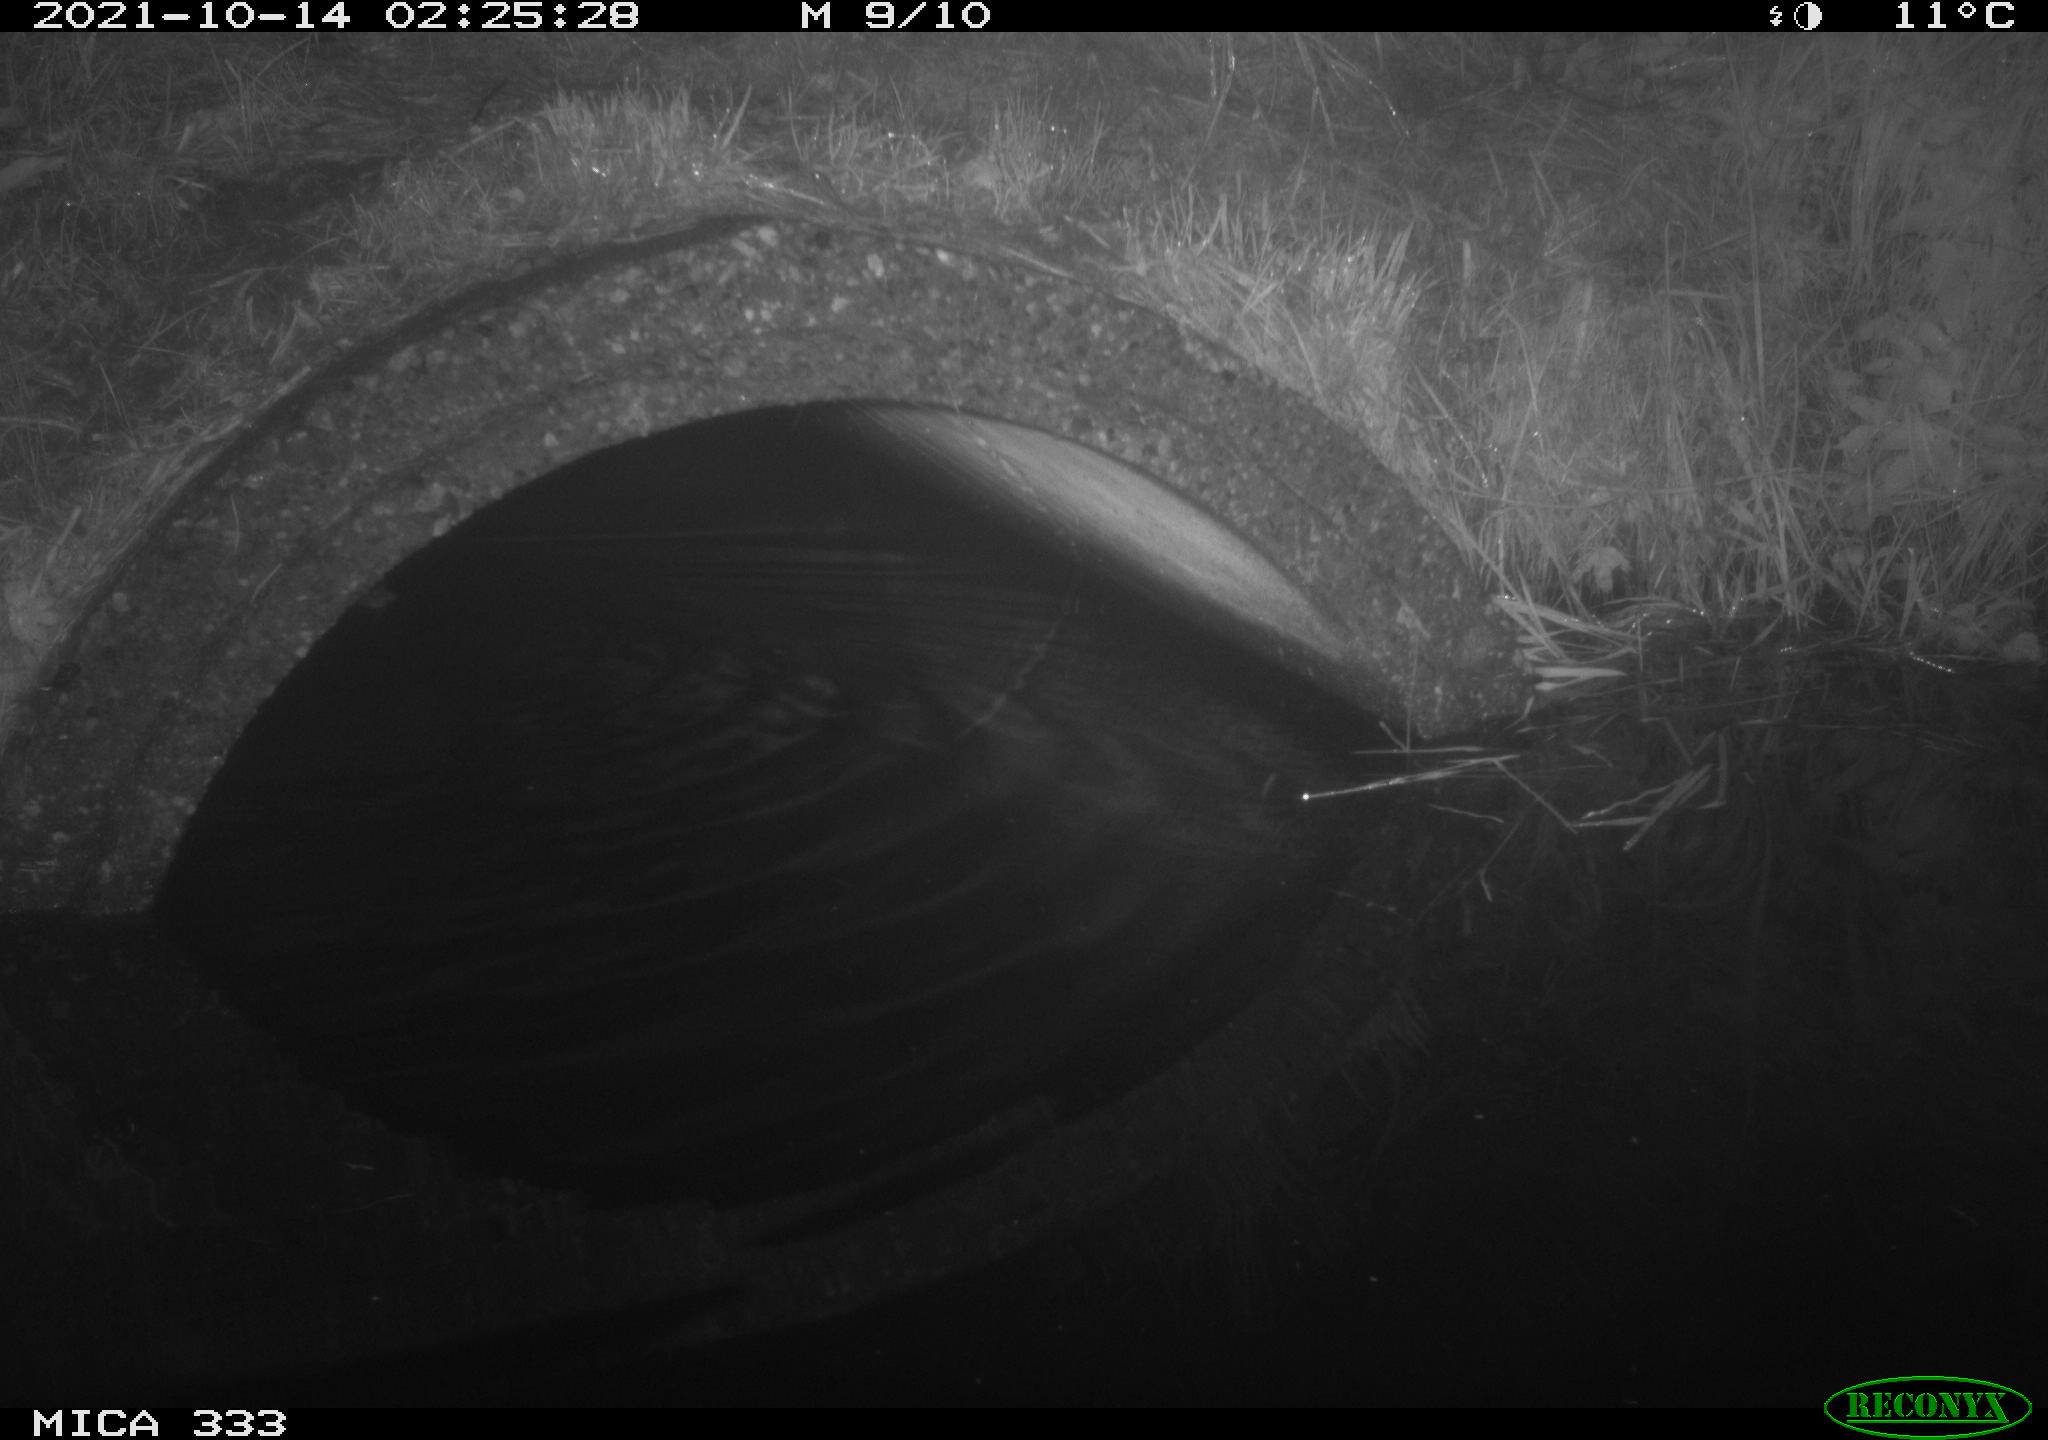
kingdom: Animalia
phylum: Chordata
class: Mammalia
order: Rodentia
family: Muridae
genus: Rattus
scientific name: Rattus norvegicus
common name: Brown rat
